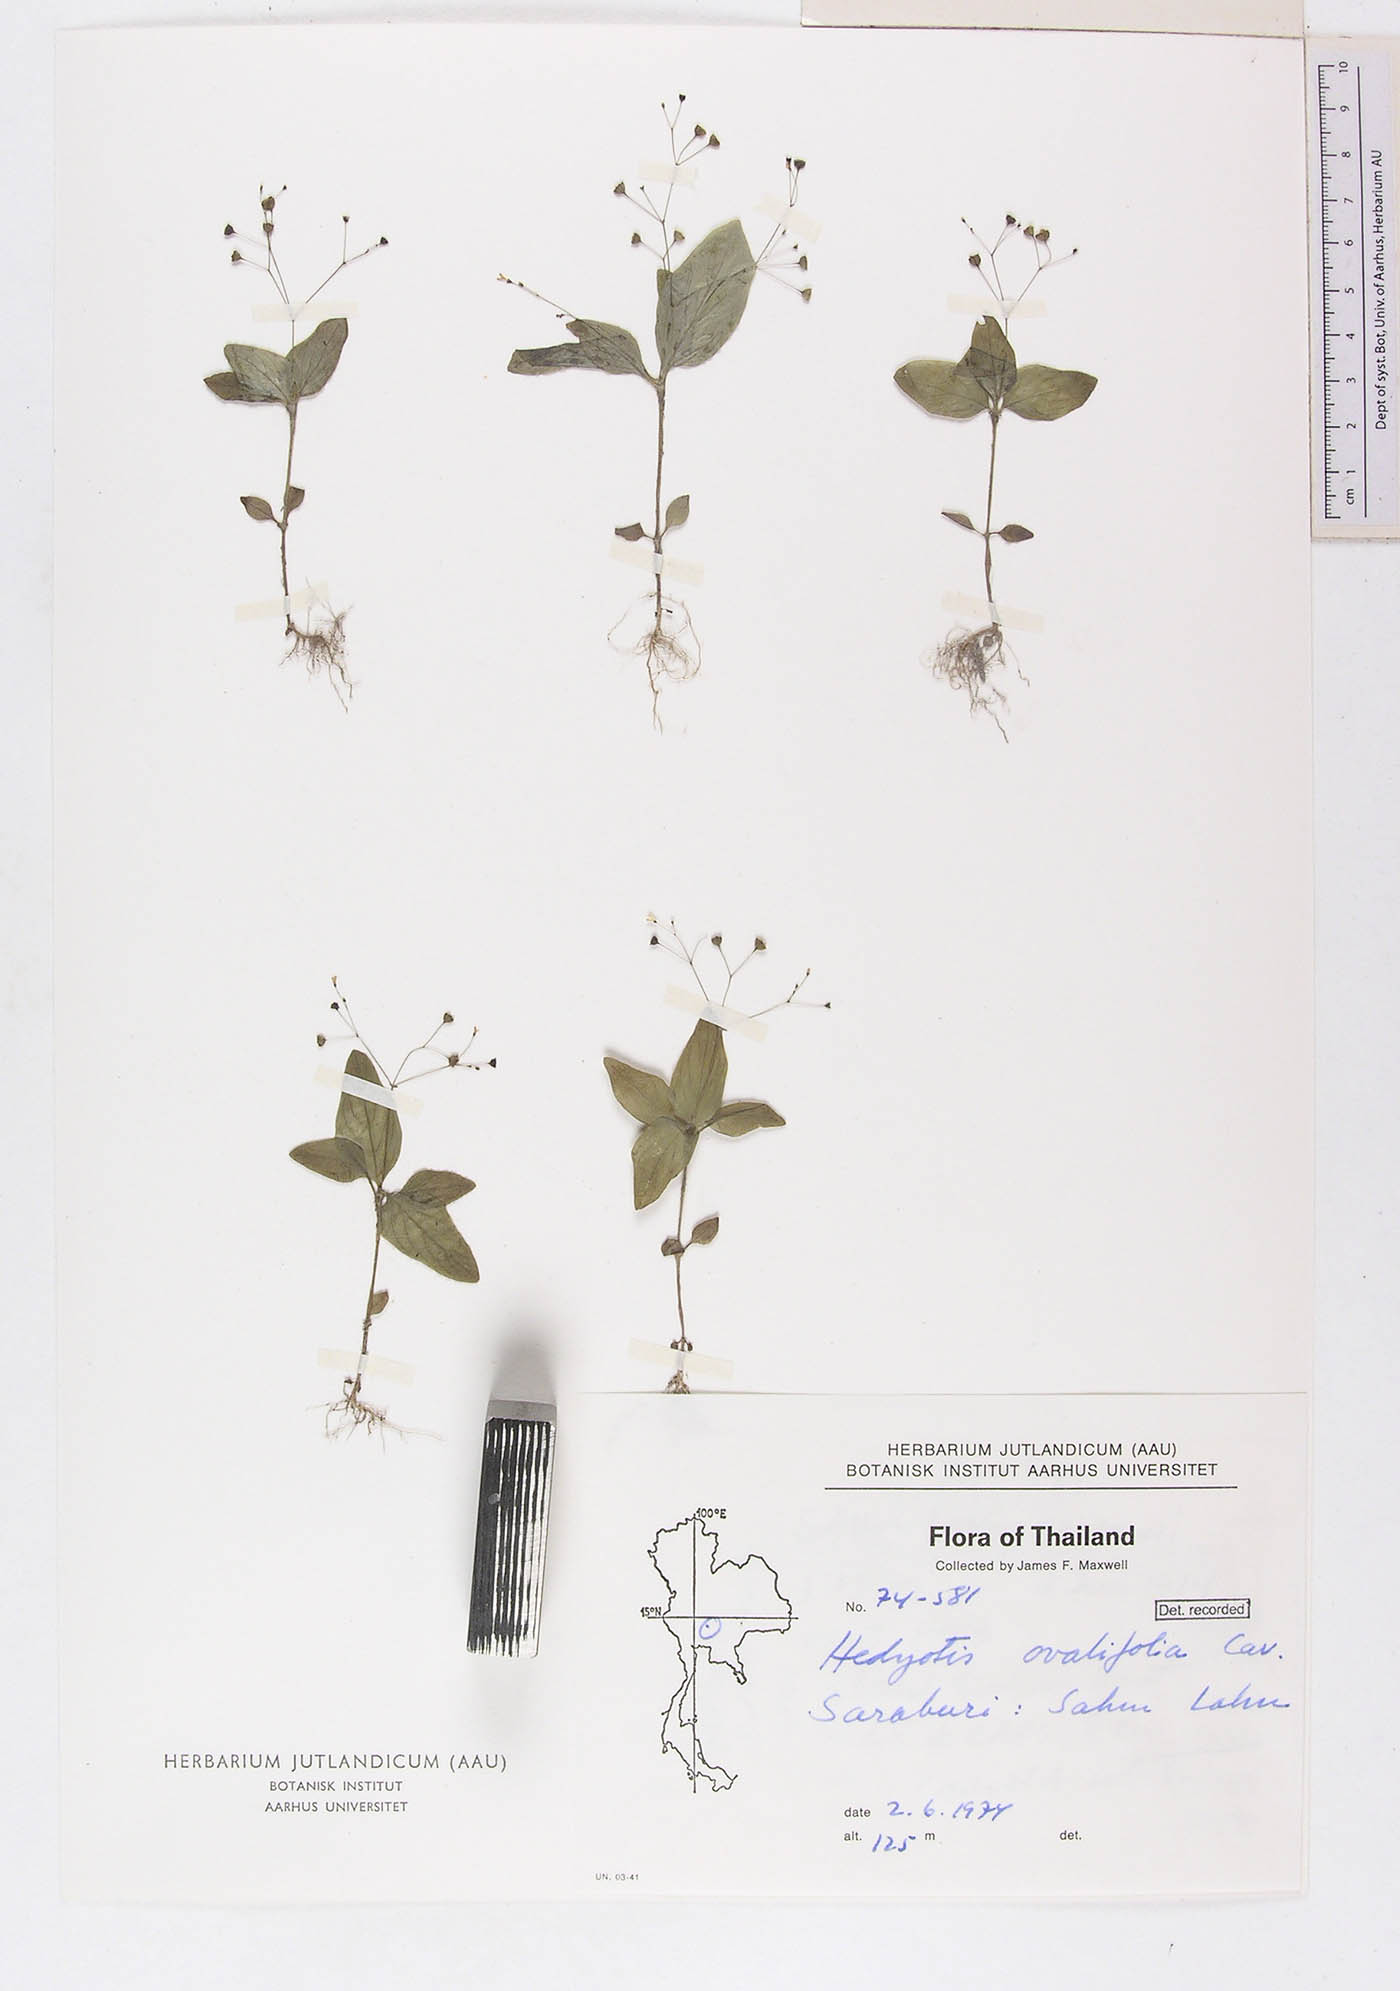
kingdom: Plantae
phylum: Tracheophyta
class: Magnoliopsida
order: Gentianales
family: Rubiaceae
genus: Debia
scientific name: Debia ovatifolia
